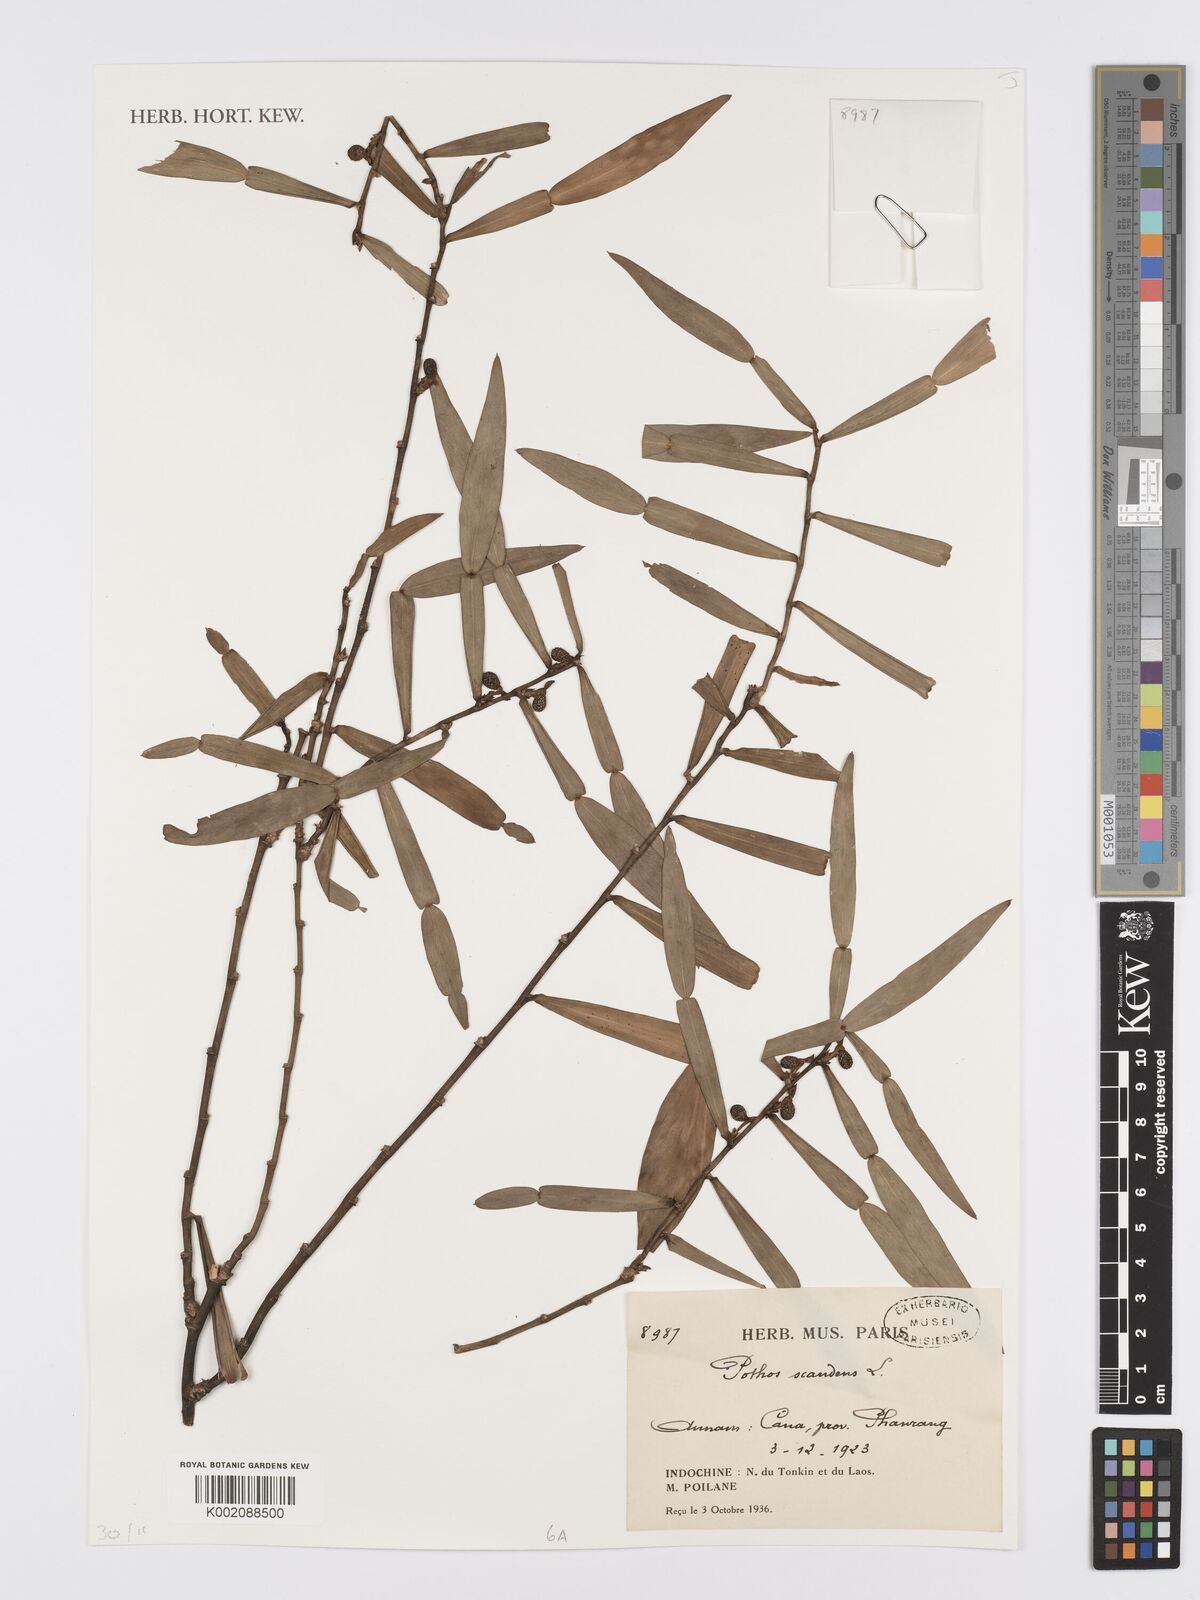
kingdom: Plantae
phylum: Tracheophyta
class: Liliopsida
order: Alismatales
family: Araceae
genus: Pothos
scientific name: Pothos scandens
